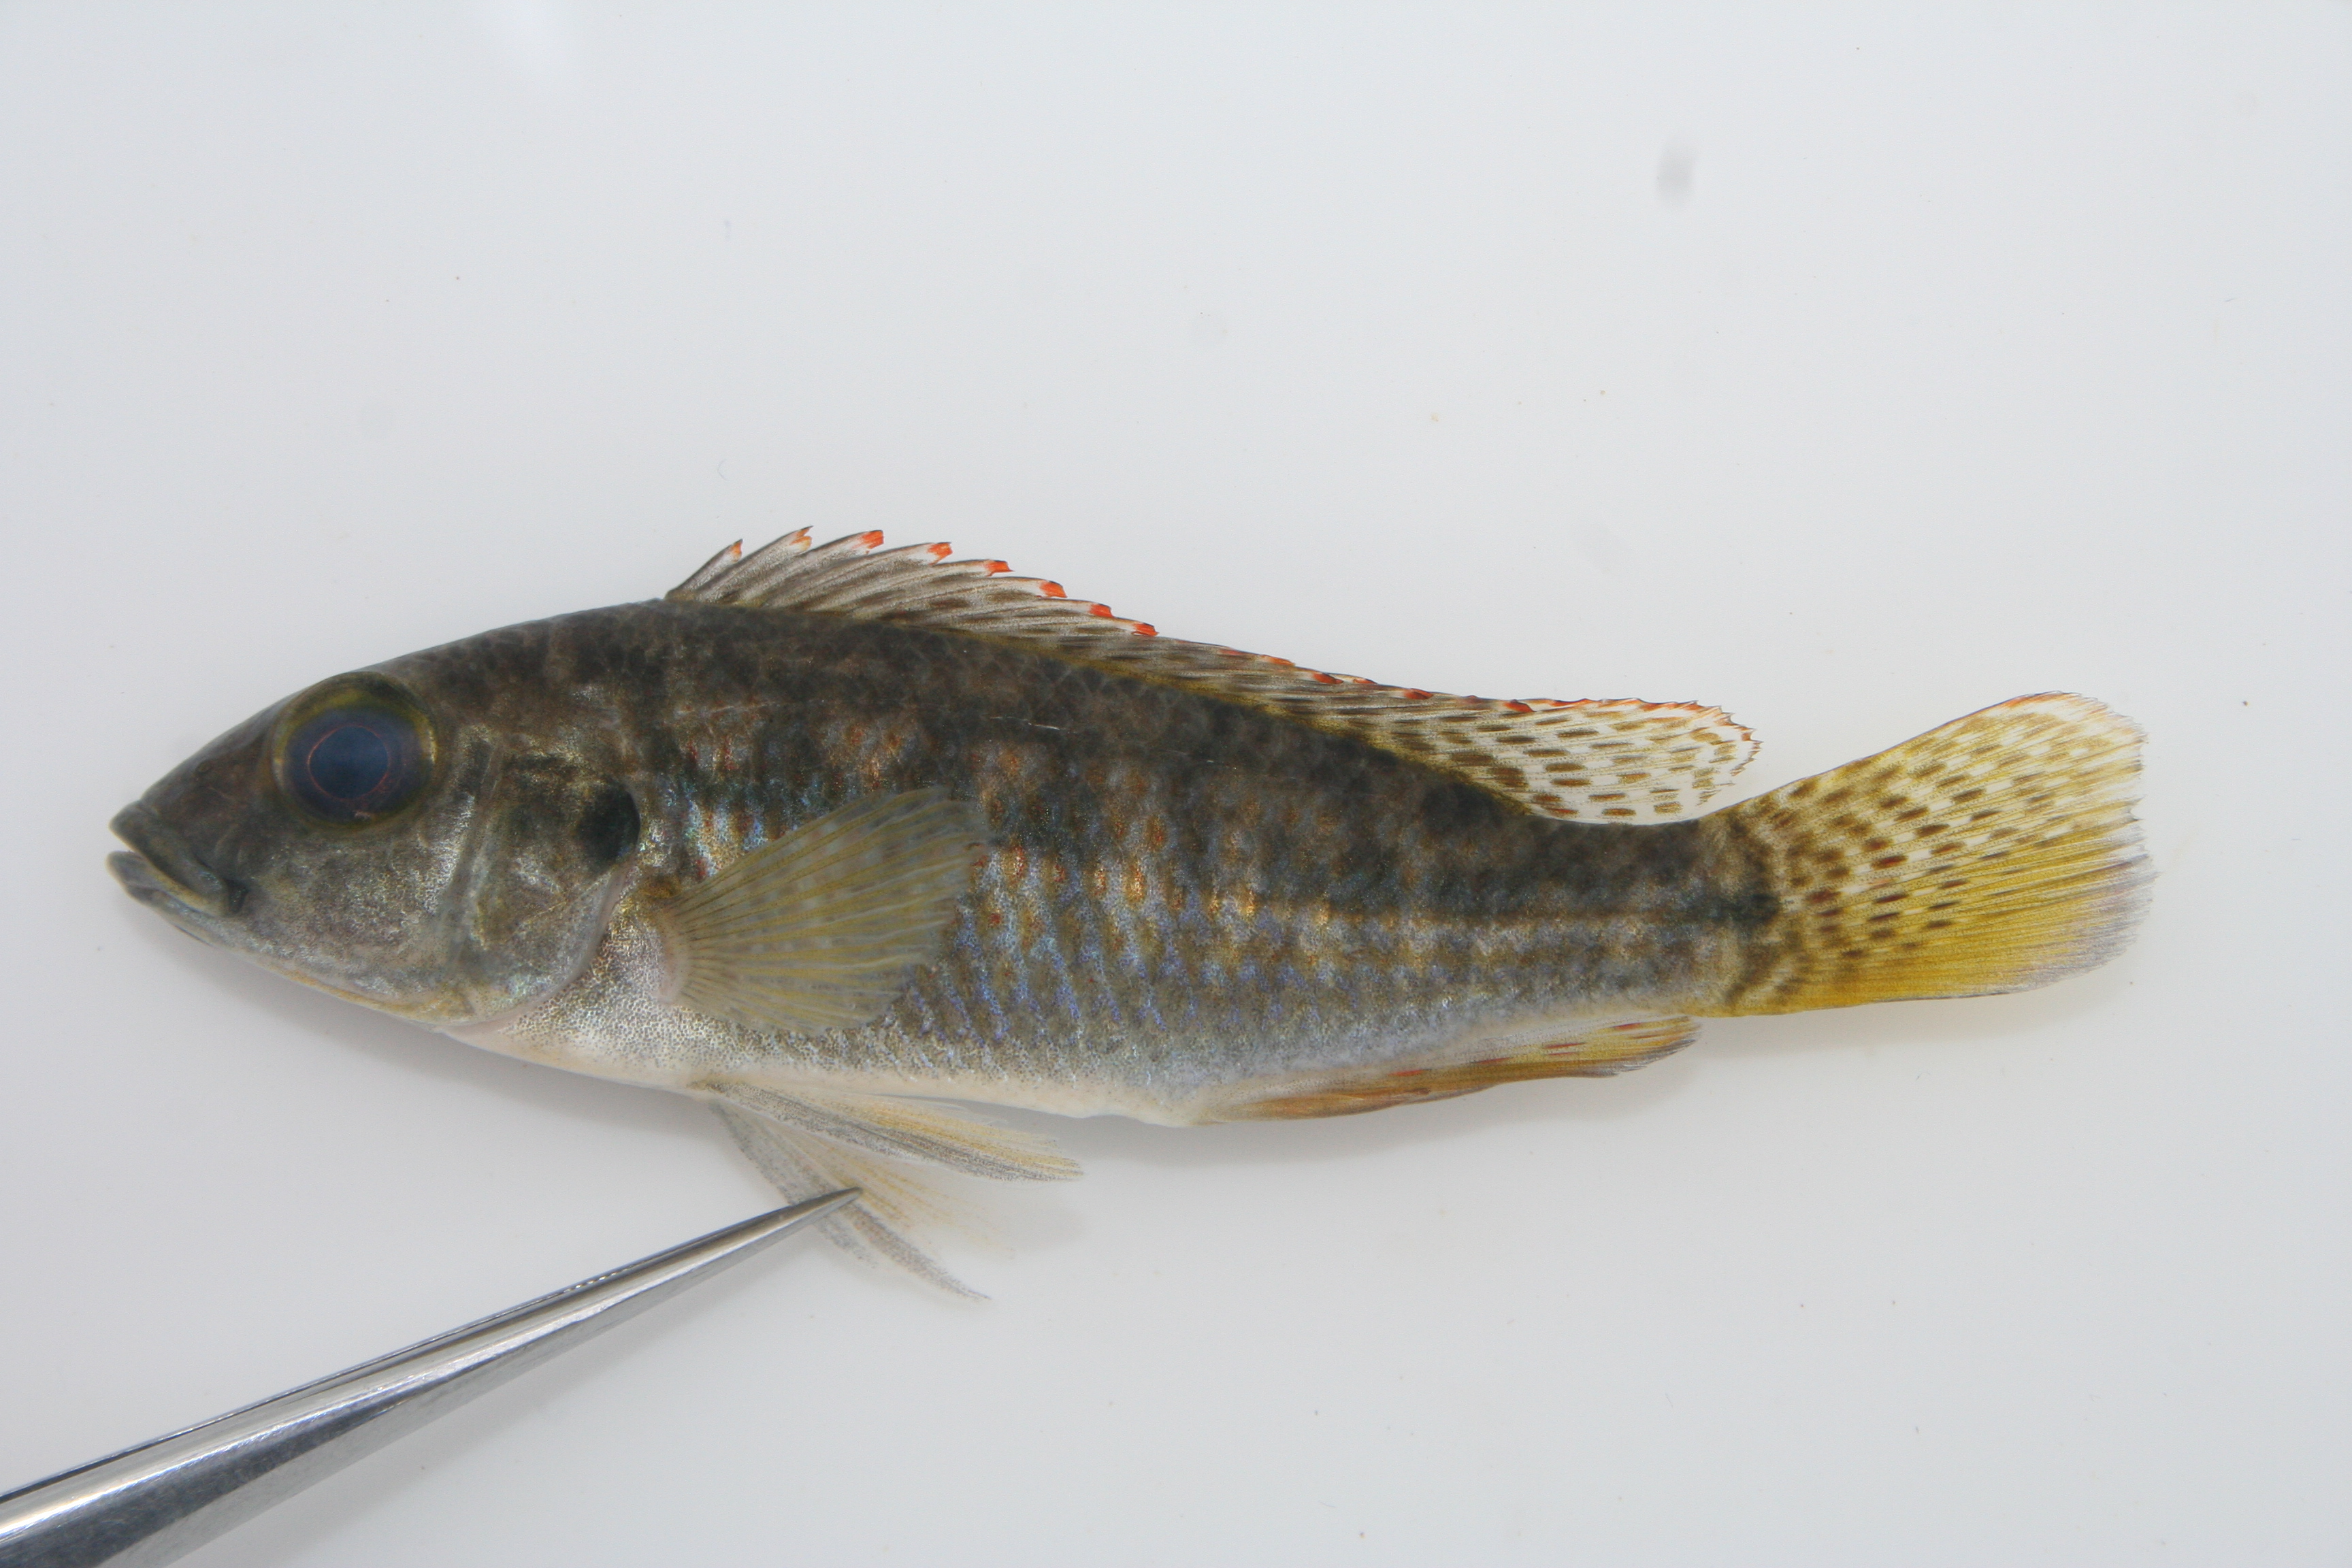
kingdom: Animalia
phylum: Chordata
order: Perciformes
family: Cichlidae
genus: Pharyngochromis
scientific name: Pharyngochromis
